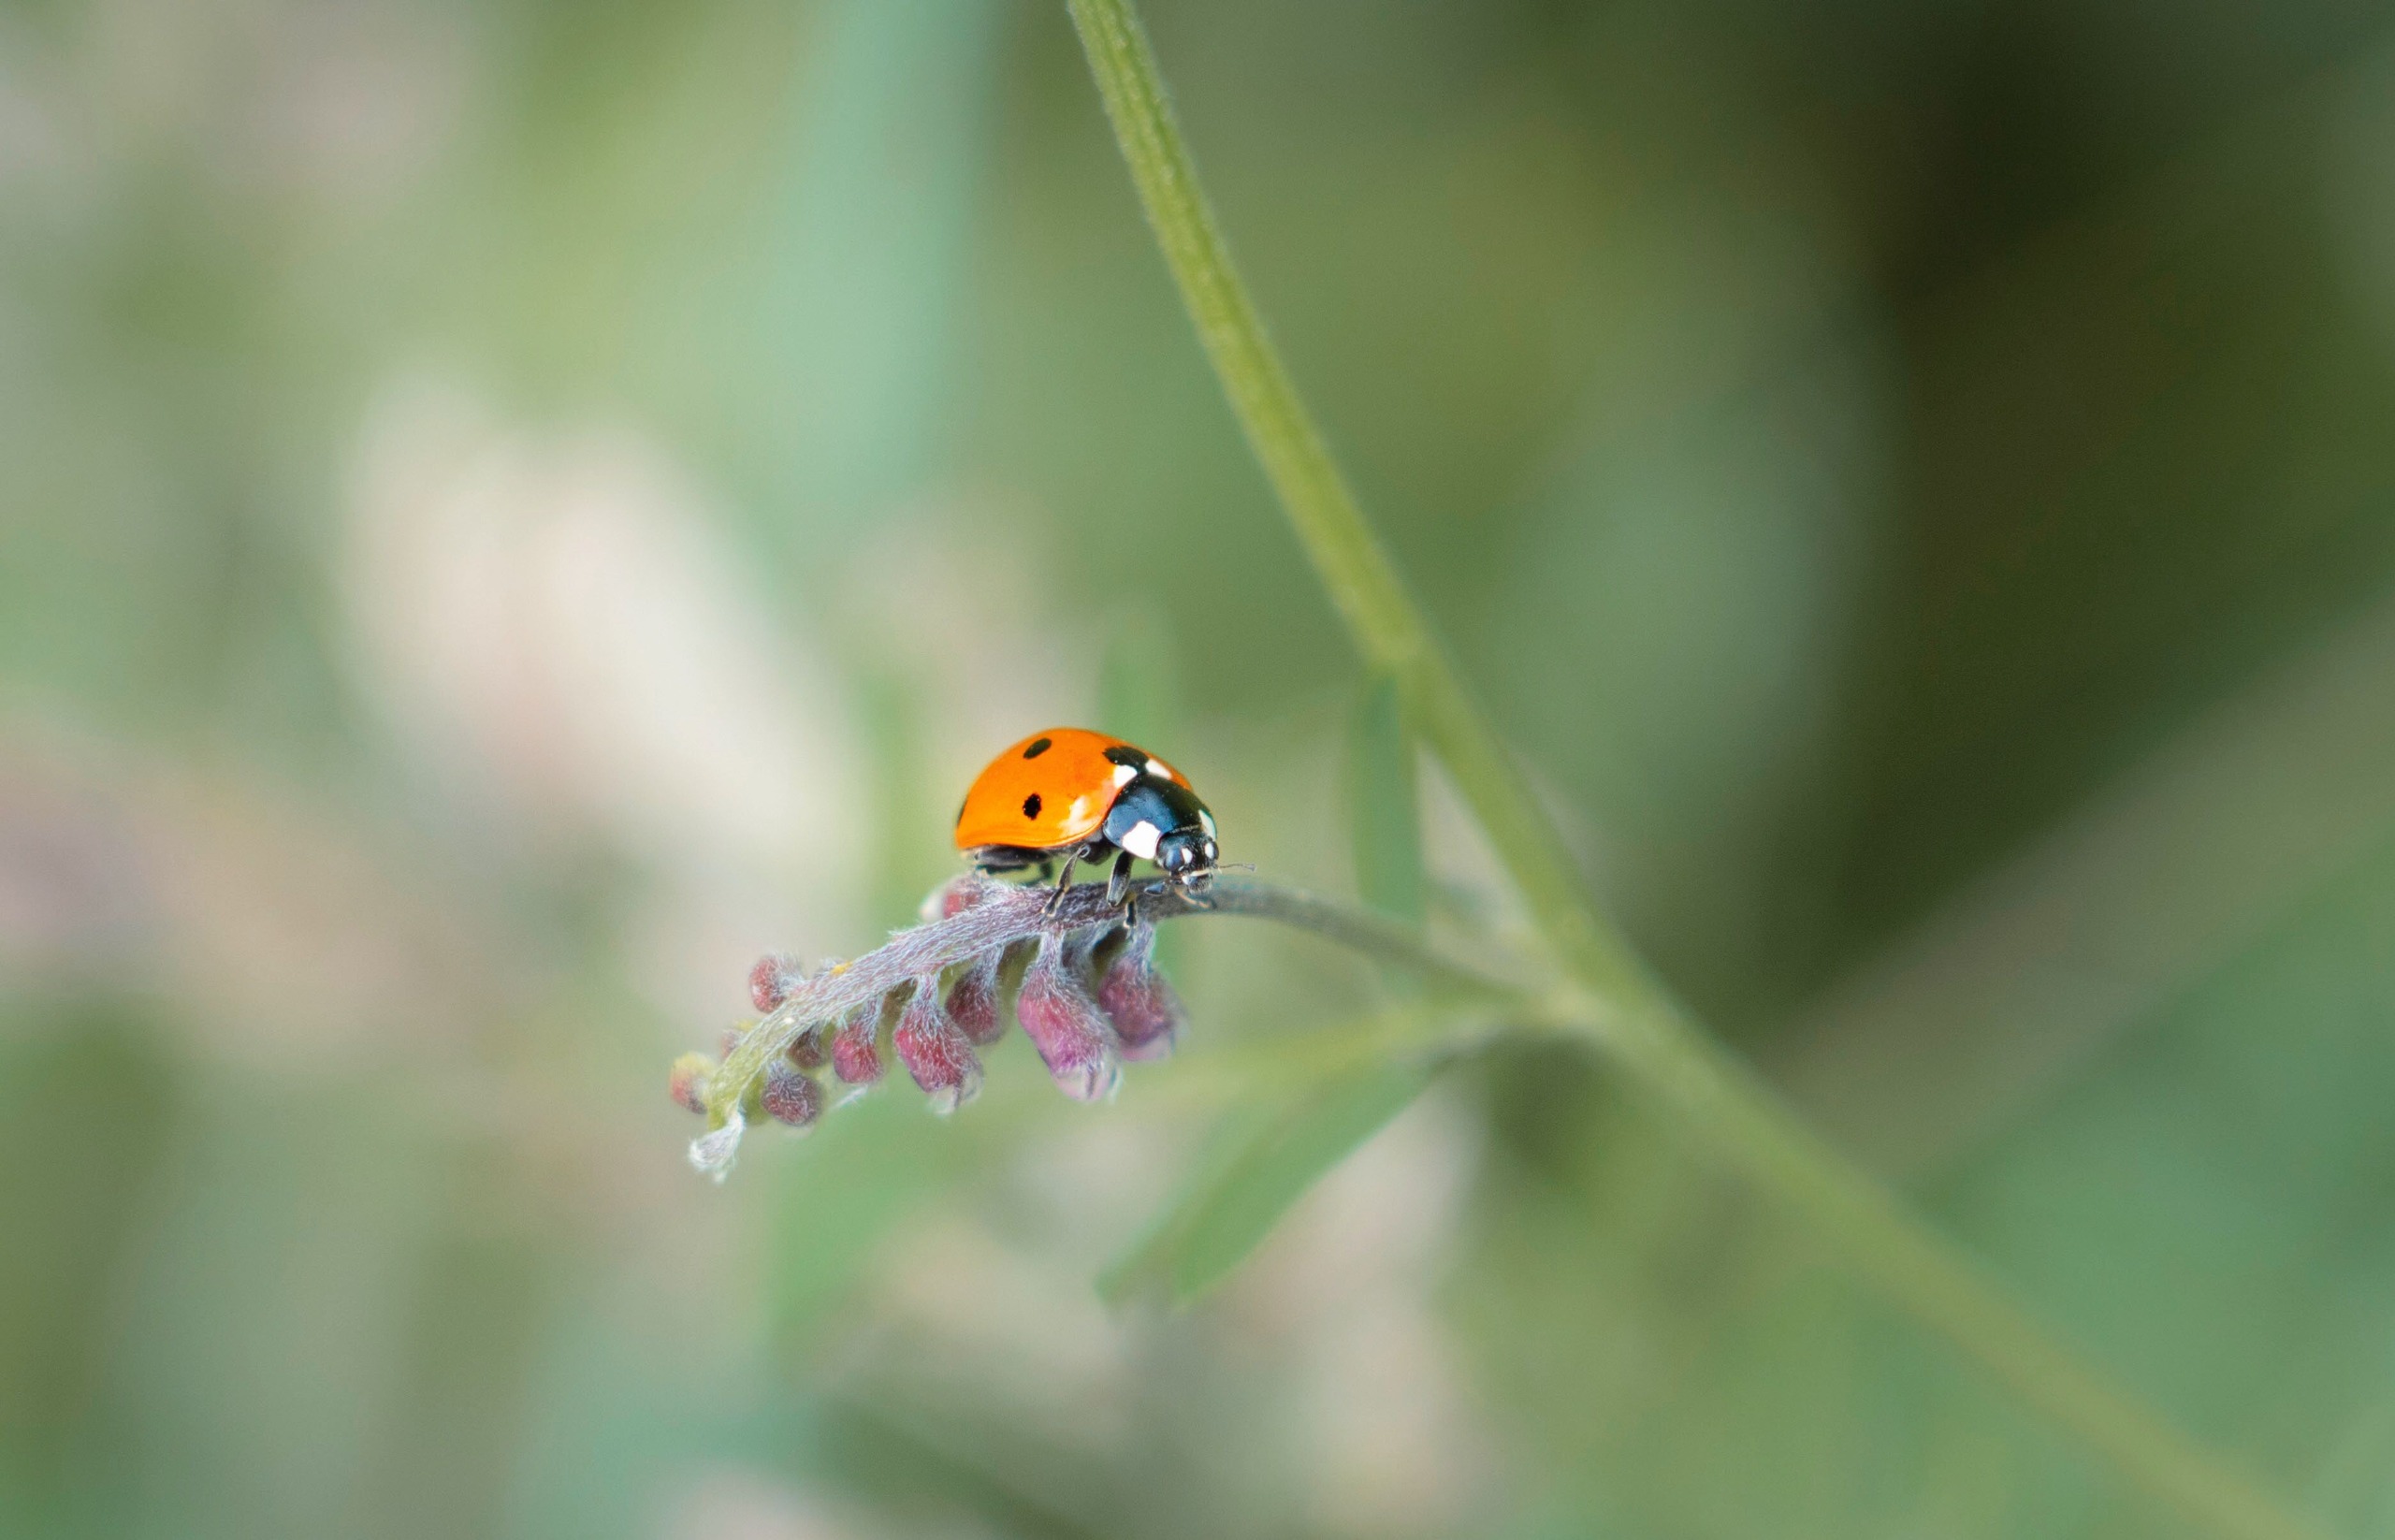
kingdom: Animalia
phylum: Arthropoda
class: Insecta
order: Coleoptera
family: Coccinellidae
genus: Coccinella
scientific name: Coccinella septempunctata
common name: Syvplettet mariehøne
